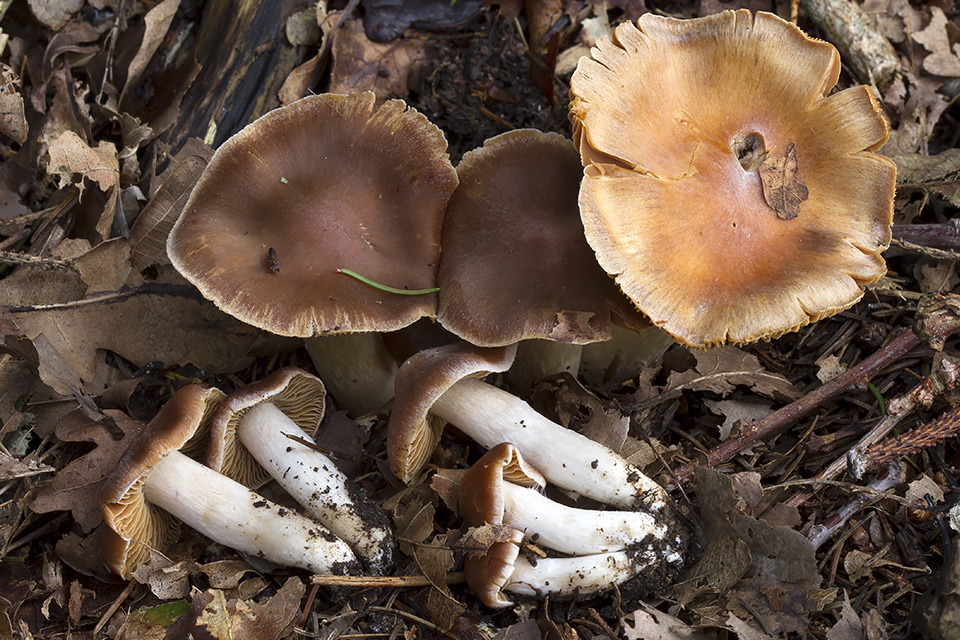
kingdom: Fungi
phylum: Basidiomycota
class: Agaricomycetes
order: Agaricales
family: Cortinariaceae
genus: Cortinarius
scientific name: Cortinarius
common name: jod-slørhat
